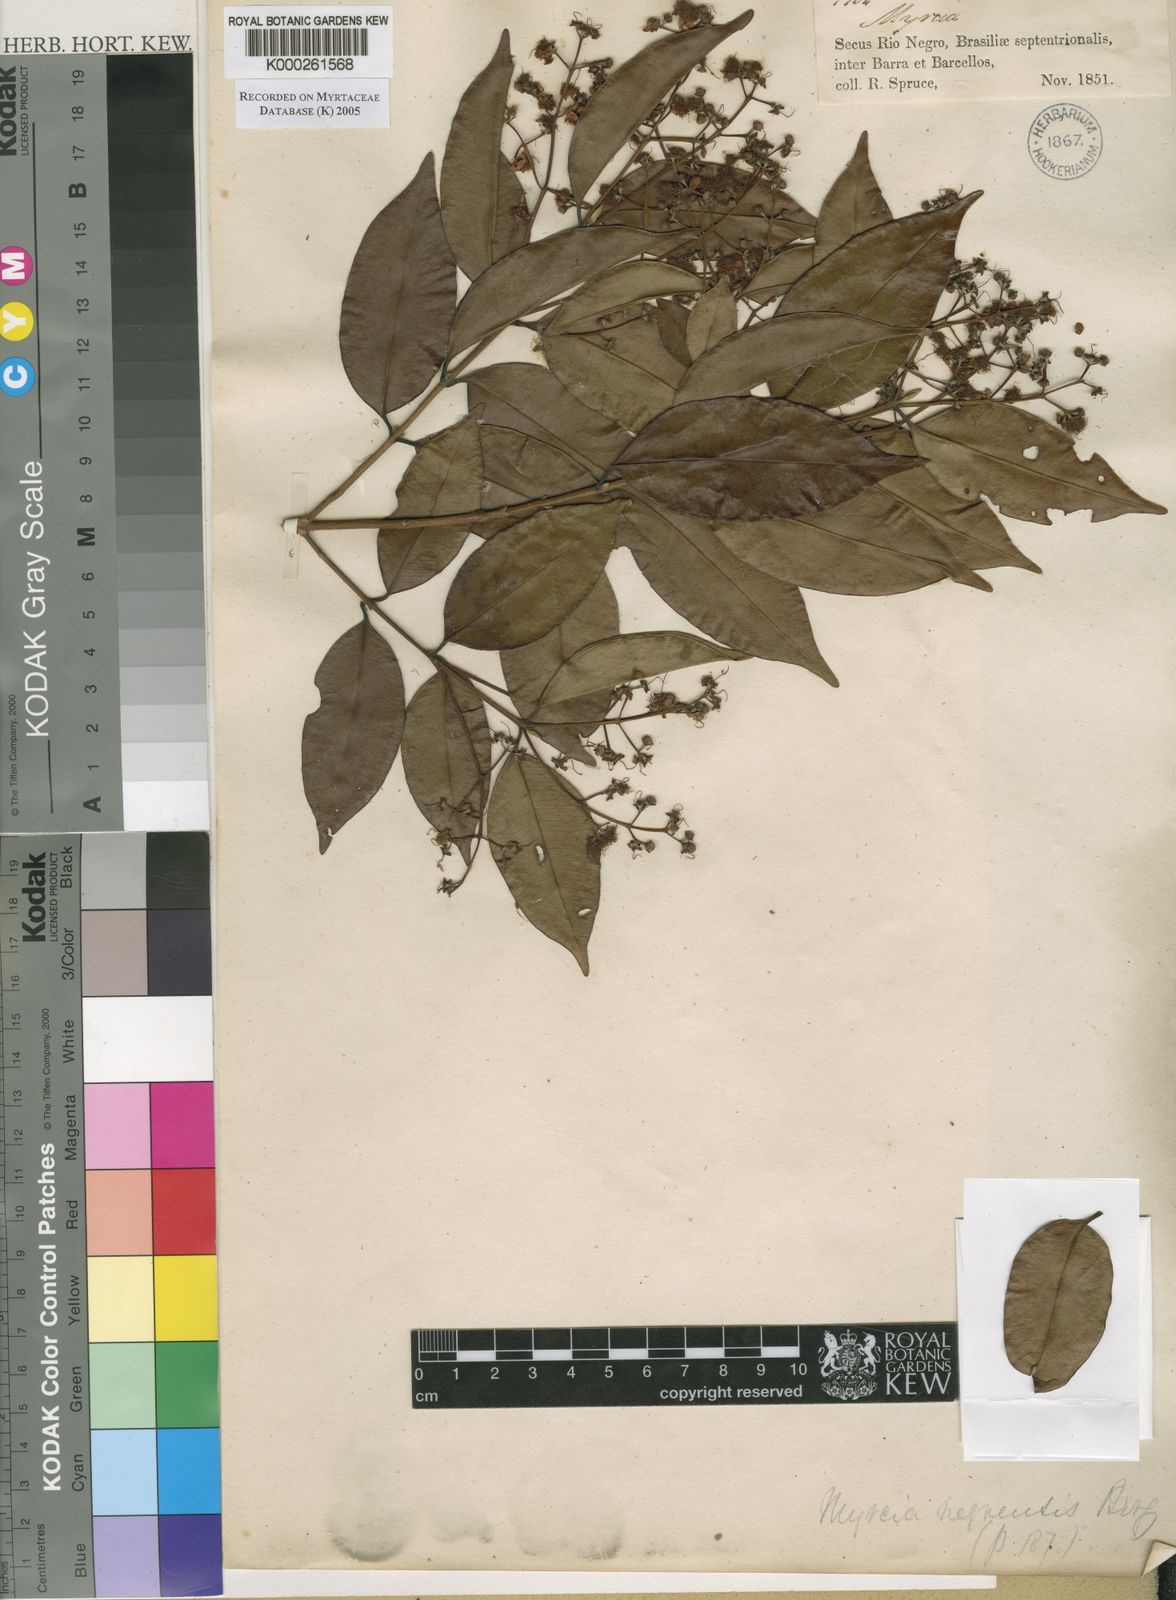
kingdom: Plantae
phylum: Tracheophyta
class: Magnoliopsida
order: Myrtales
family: Myrtaceae
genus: Myrcia
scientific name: Myrcia splendens
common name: Surinam cherry
